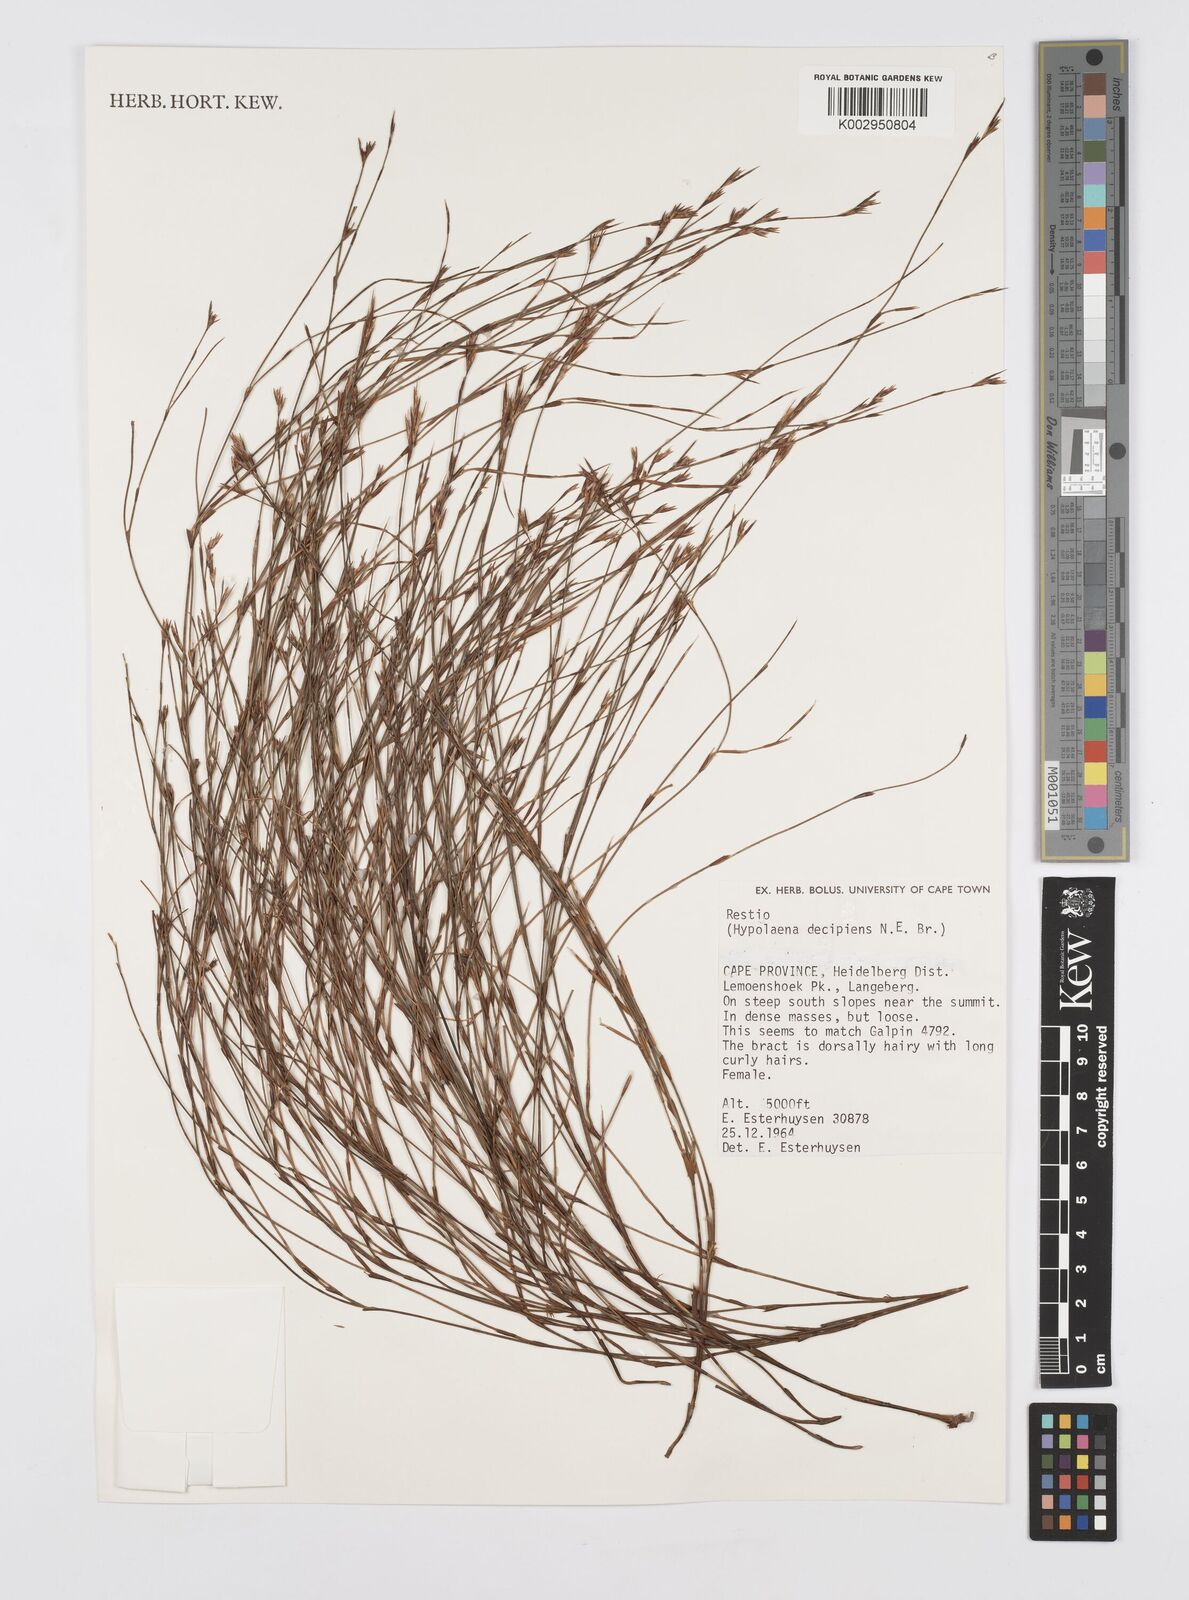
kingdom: Plantae
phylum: Tracheophyta
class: Liliopsida
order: Poales
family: Restionaceae
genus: Restio
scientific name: Restio decipiens
